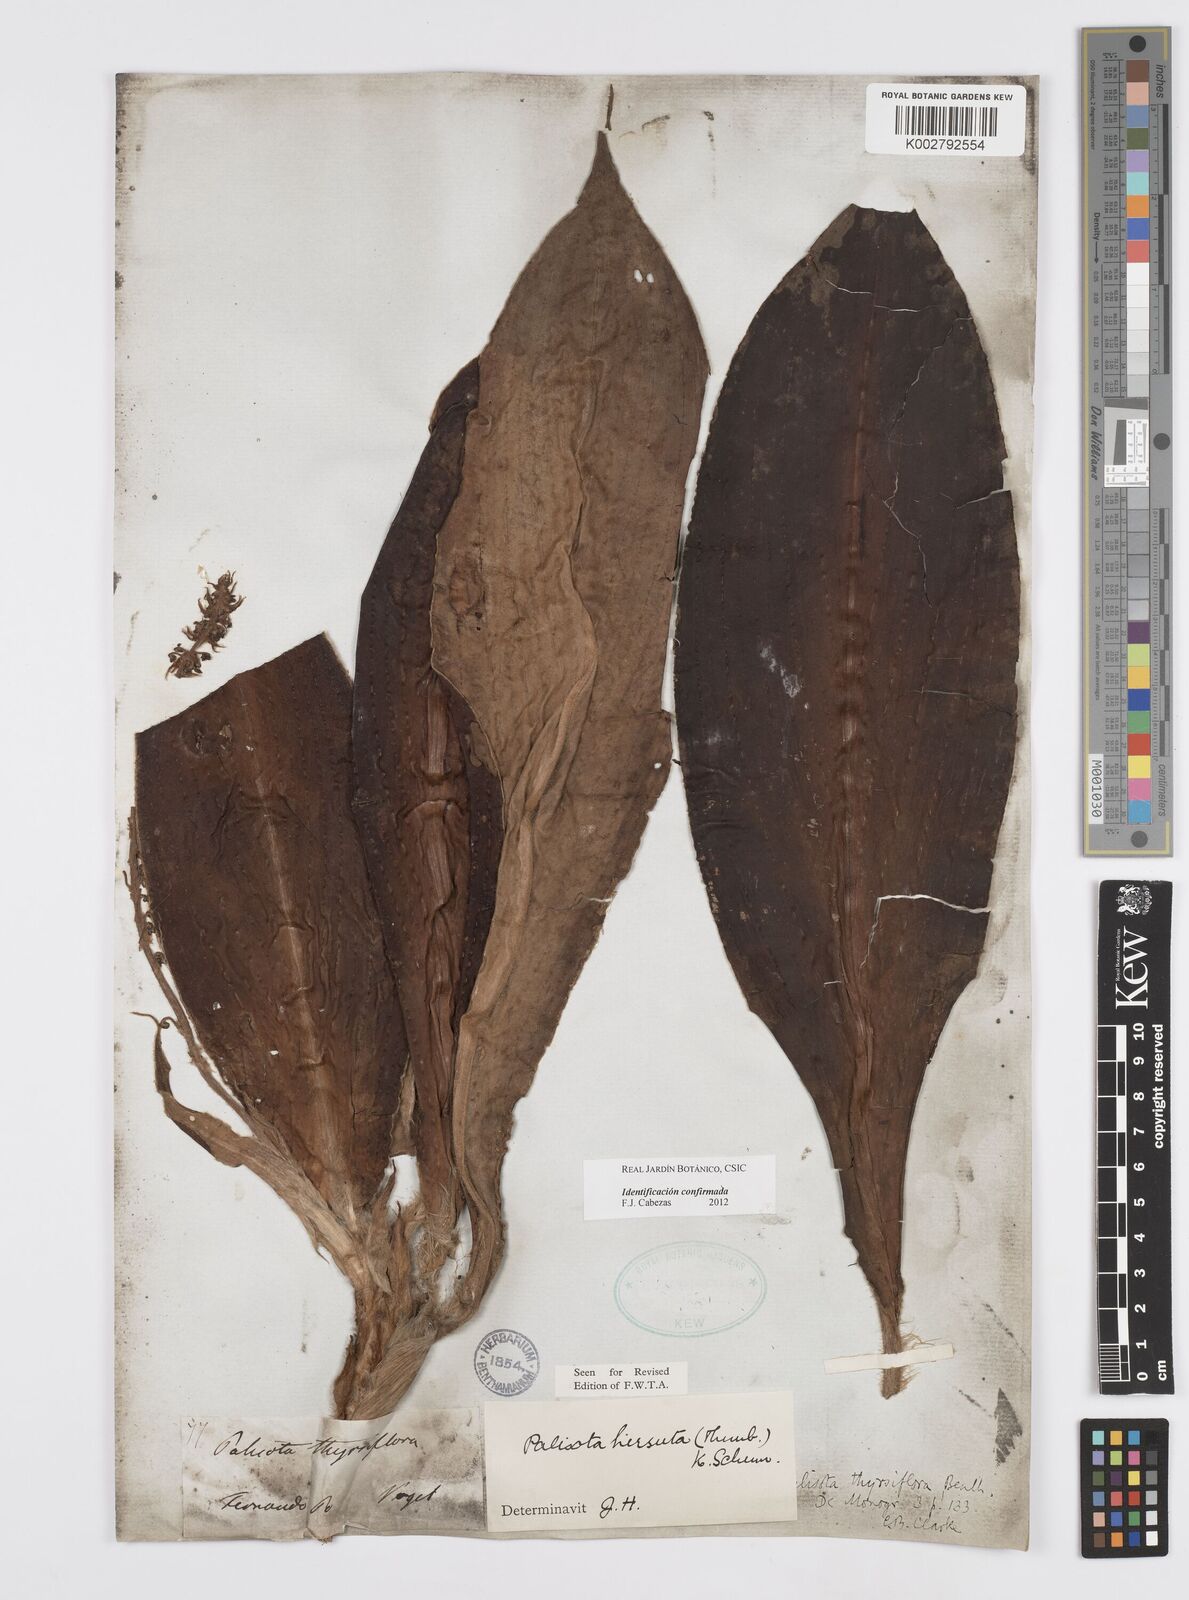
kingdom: Plantae
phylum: Tracheophyta
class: Liliopsida
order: Commelinales
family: Commelinaceae
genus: Palisota
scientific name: Palisota hirsuta
